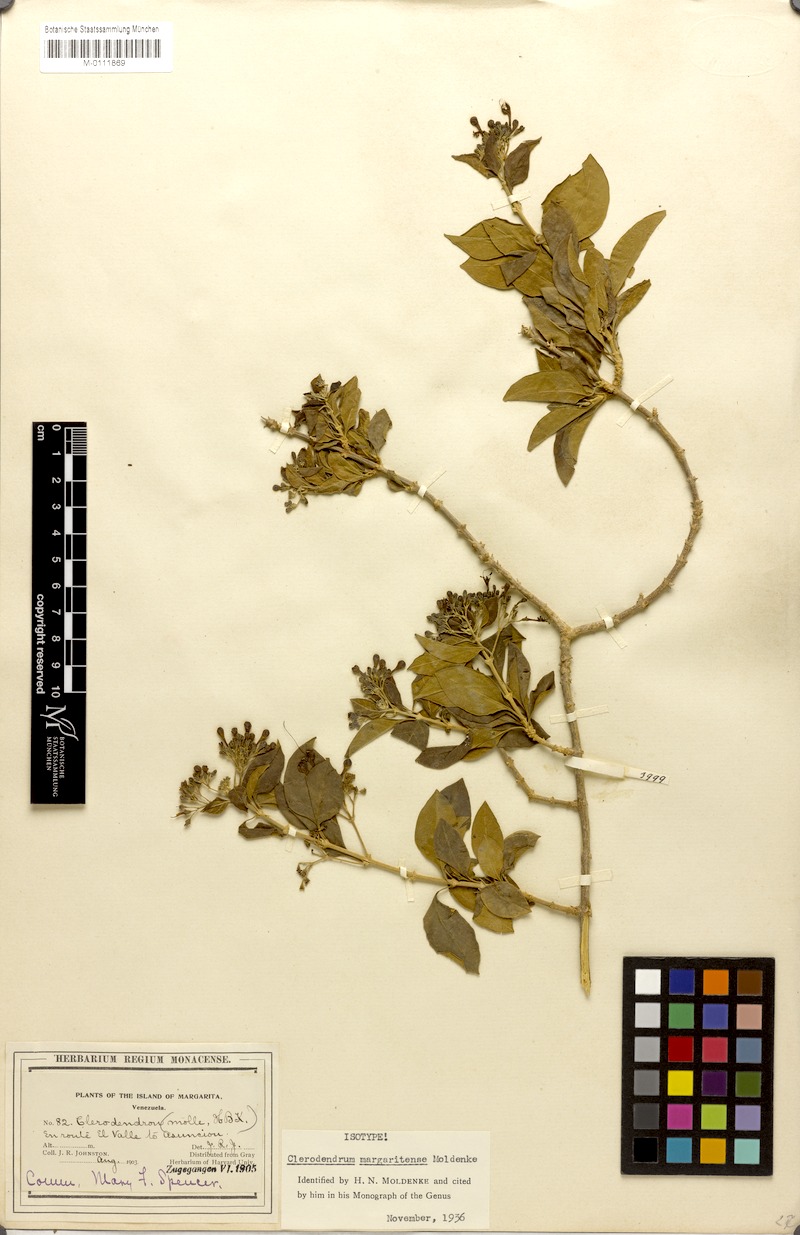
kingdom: Plantae
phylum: Tracheophyta
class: Magnoliopsida
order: Lamiales
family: Lamiaceae
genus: Clerodendrum
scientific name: Clerodendrum margaritense
